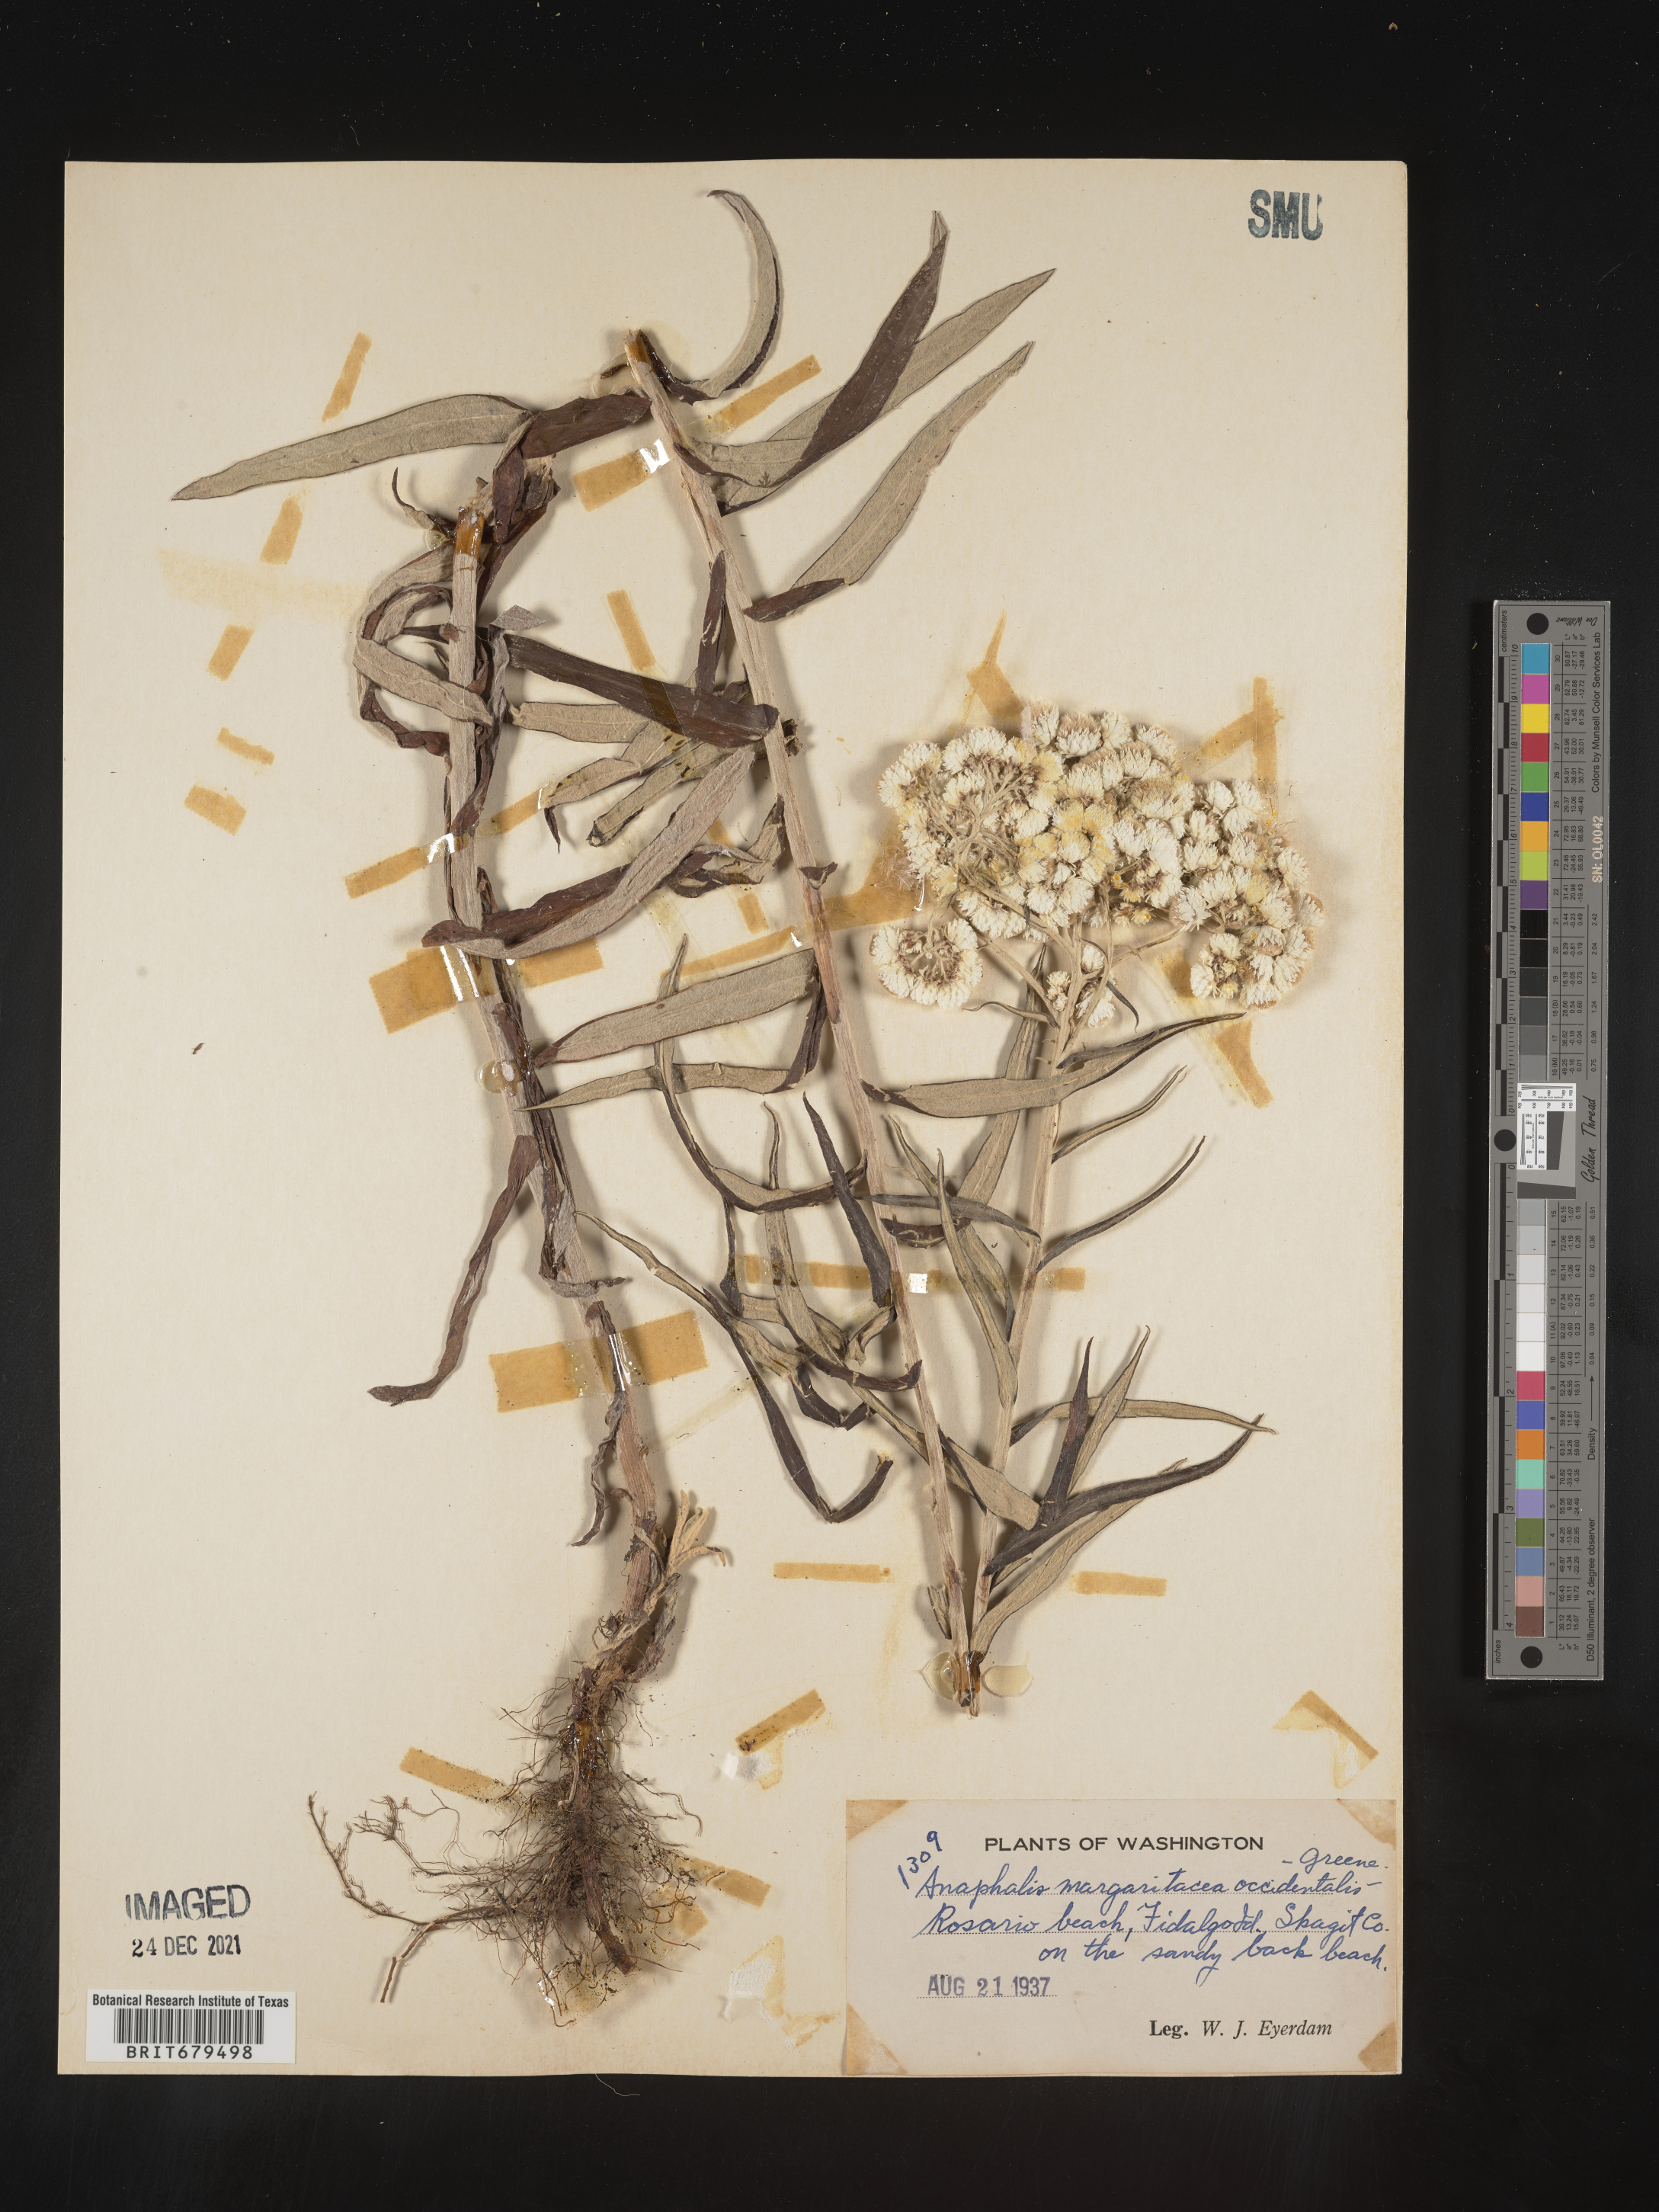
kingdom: Plantae
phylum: Tracheophyta
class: Magnoliopsida
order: Asterales
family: Asteraceae
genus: Anaphalis
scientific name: Anaphalis margaritacea
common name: Pearly everlasting
